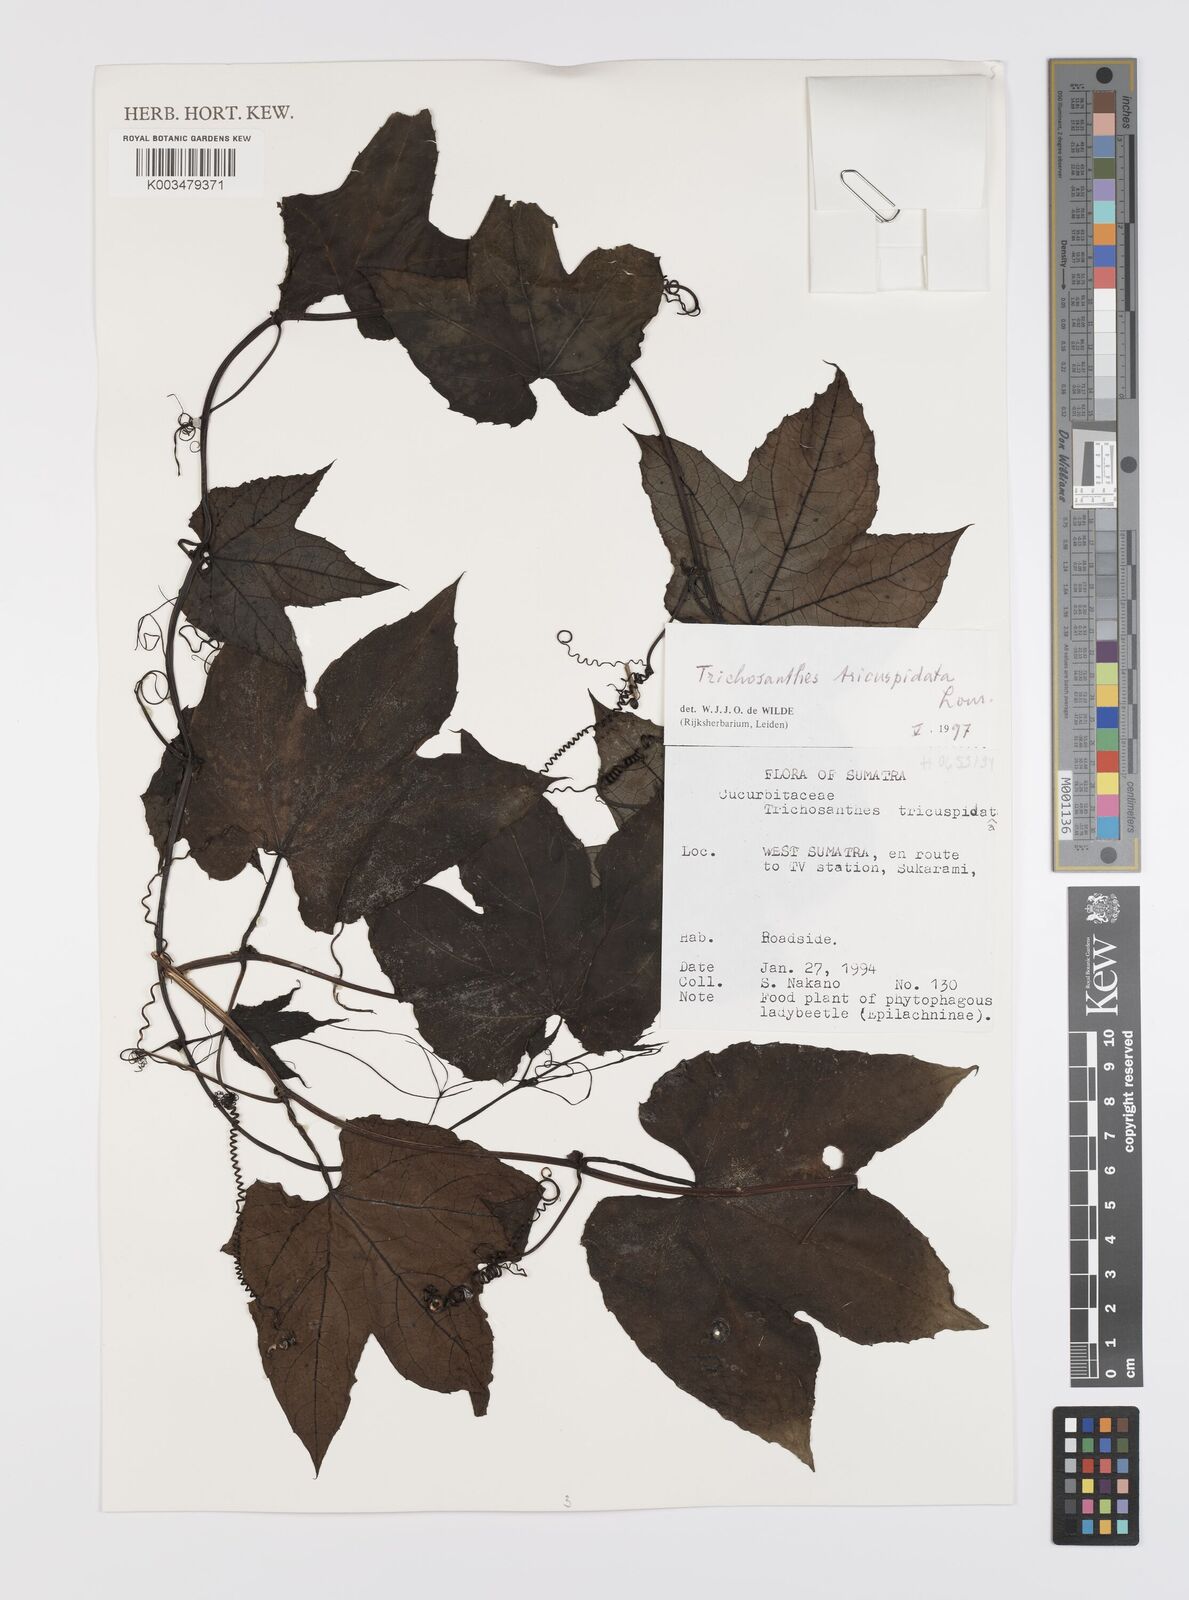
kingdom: Plantae
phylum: Tracheophyta
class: Magnoliopsida
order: Cucurbitales
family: Cucurbitaceae
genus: Trichosanthes
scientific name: Trichosanthes tricuspidata
